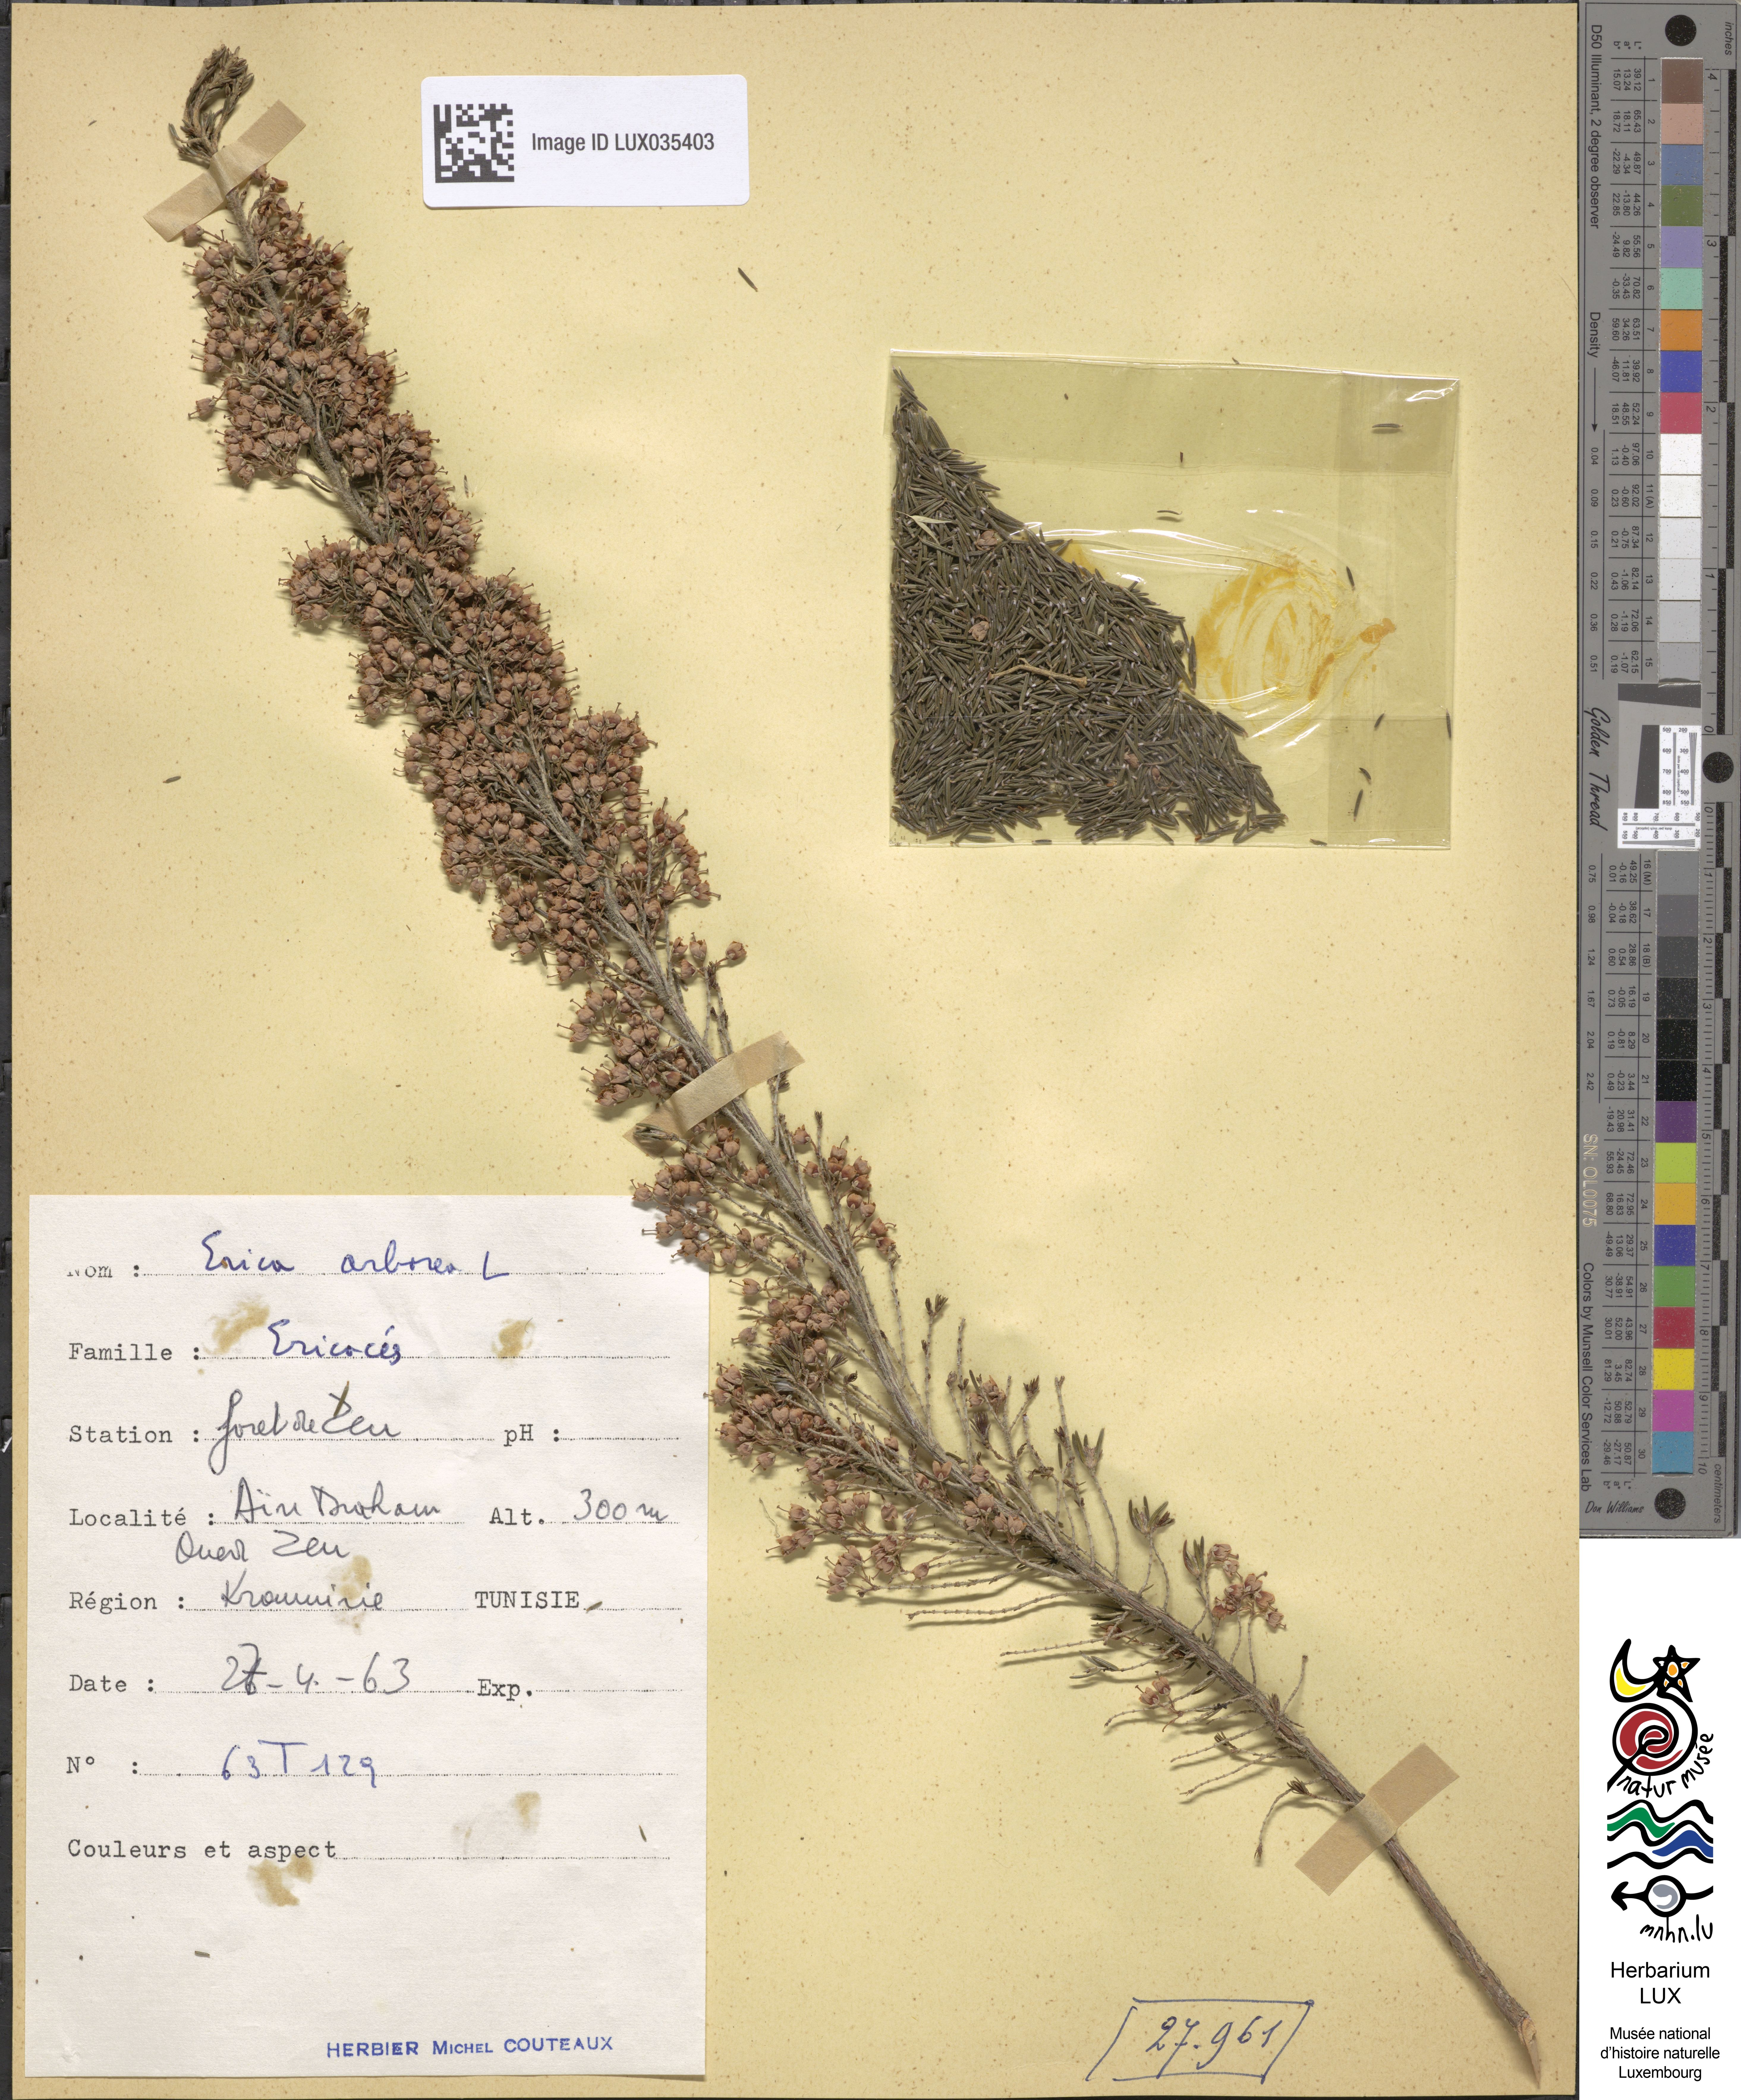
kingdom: Plantae
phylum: Tracheophyta
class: Magnoliopsida
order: Ericales
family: Ericaceae
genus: Erica
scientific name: Erica arborea
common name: Tree heath
